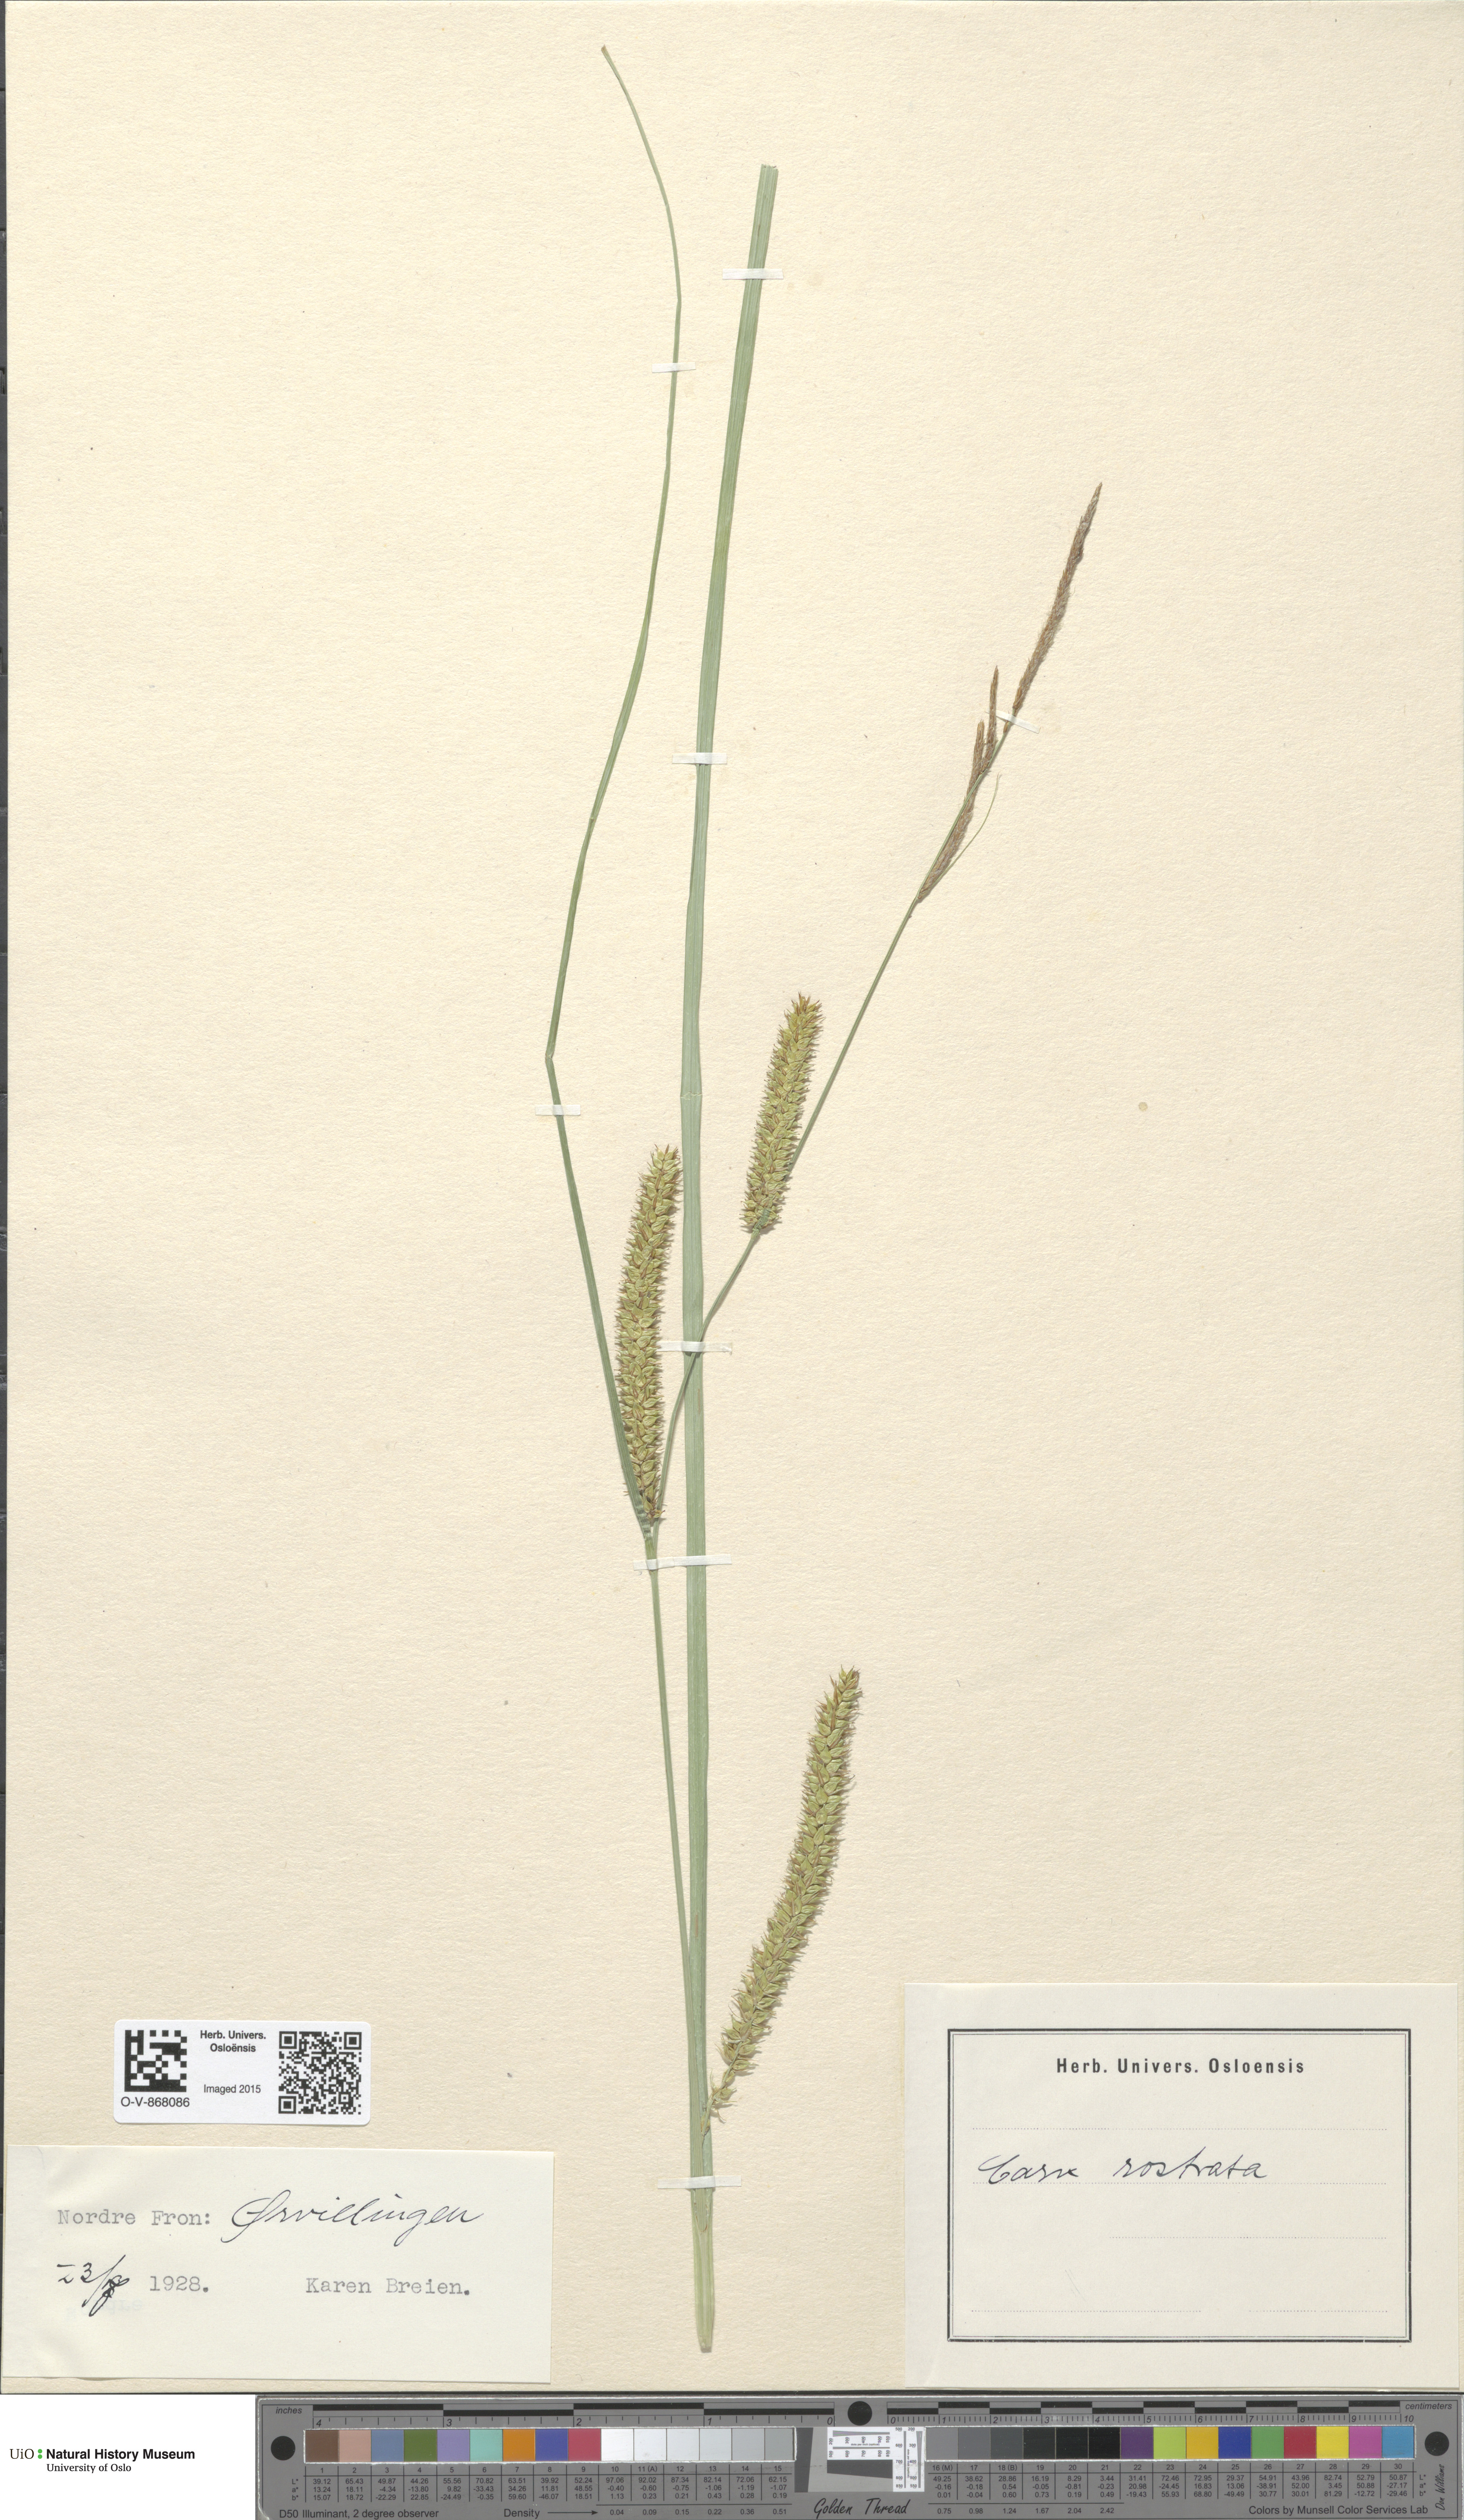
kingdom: Plantae
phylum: Tracheophyta
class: Liliopsida
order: Poales
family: Cyperaceae
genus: Carex
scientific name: Carex rostrata
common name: Bottle sedge
